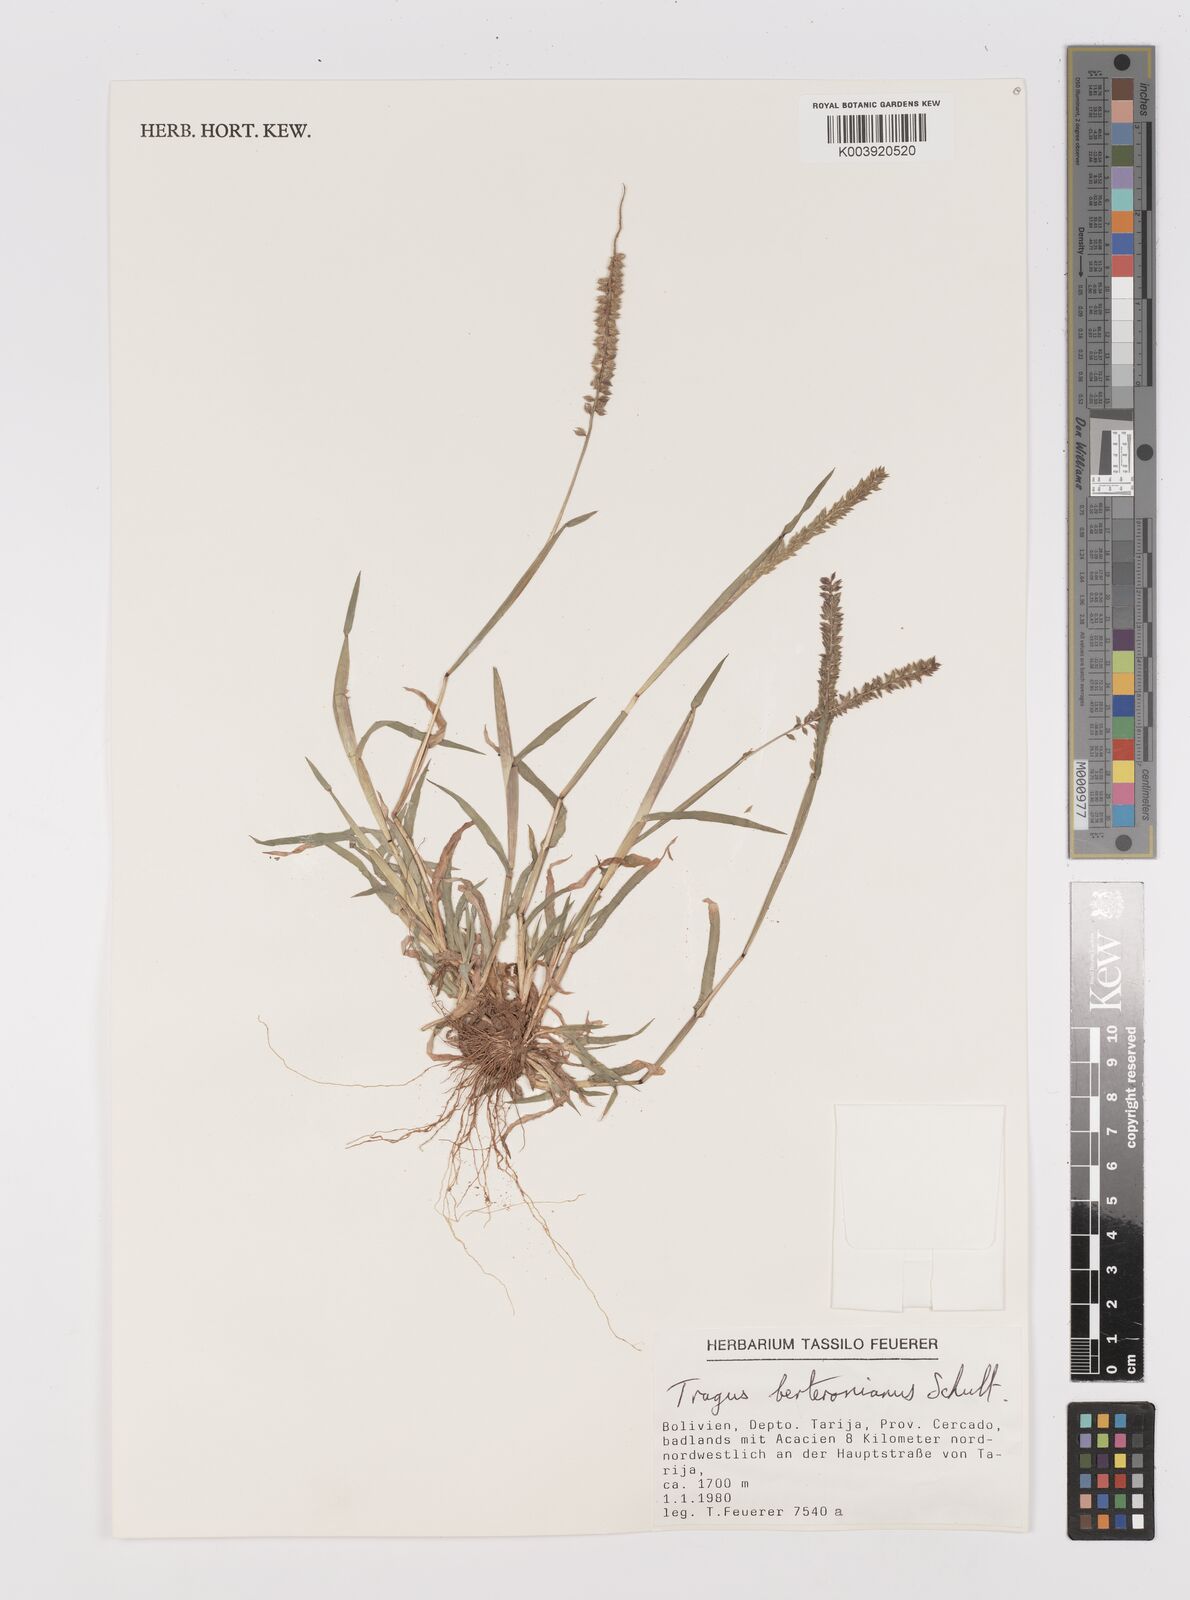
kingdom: Plantae
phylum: Tracheophyta
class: Liliopsida
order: Poales
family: Poaceae
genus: Tragus
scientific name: Tragus berteronianus
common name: African bur-grass
